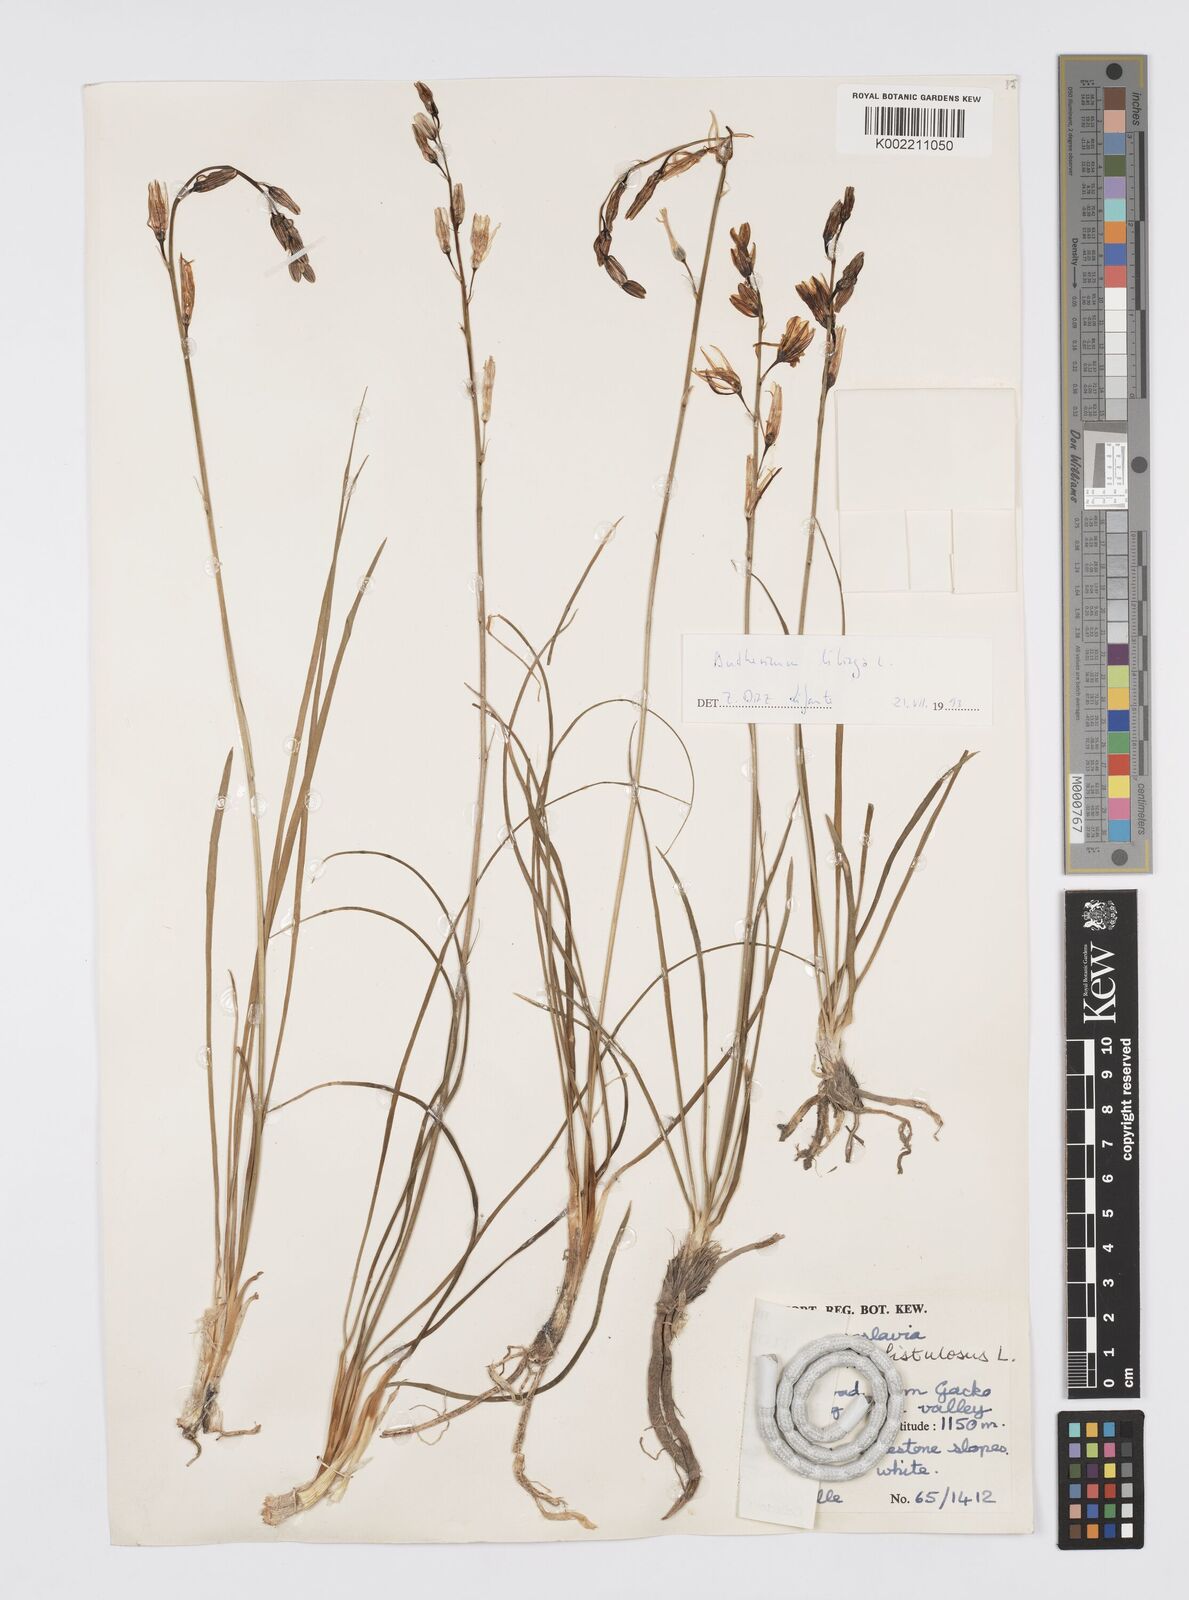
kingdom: Plantae
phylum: Tracheophyta
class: Liliopsida
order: Asparagales
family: Asphodelaceae
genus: Asphodelus
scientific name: Asphodelus fistulosus
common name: Onionweed
